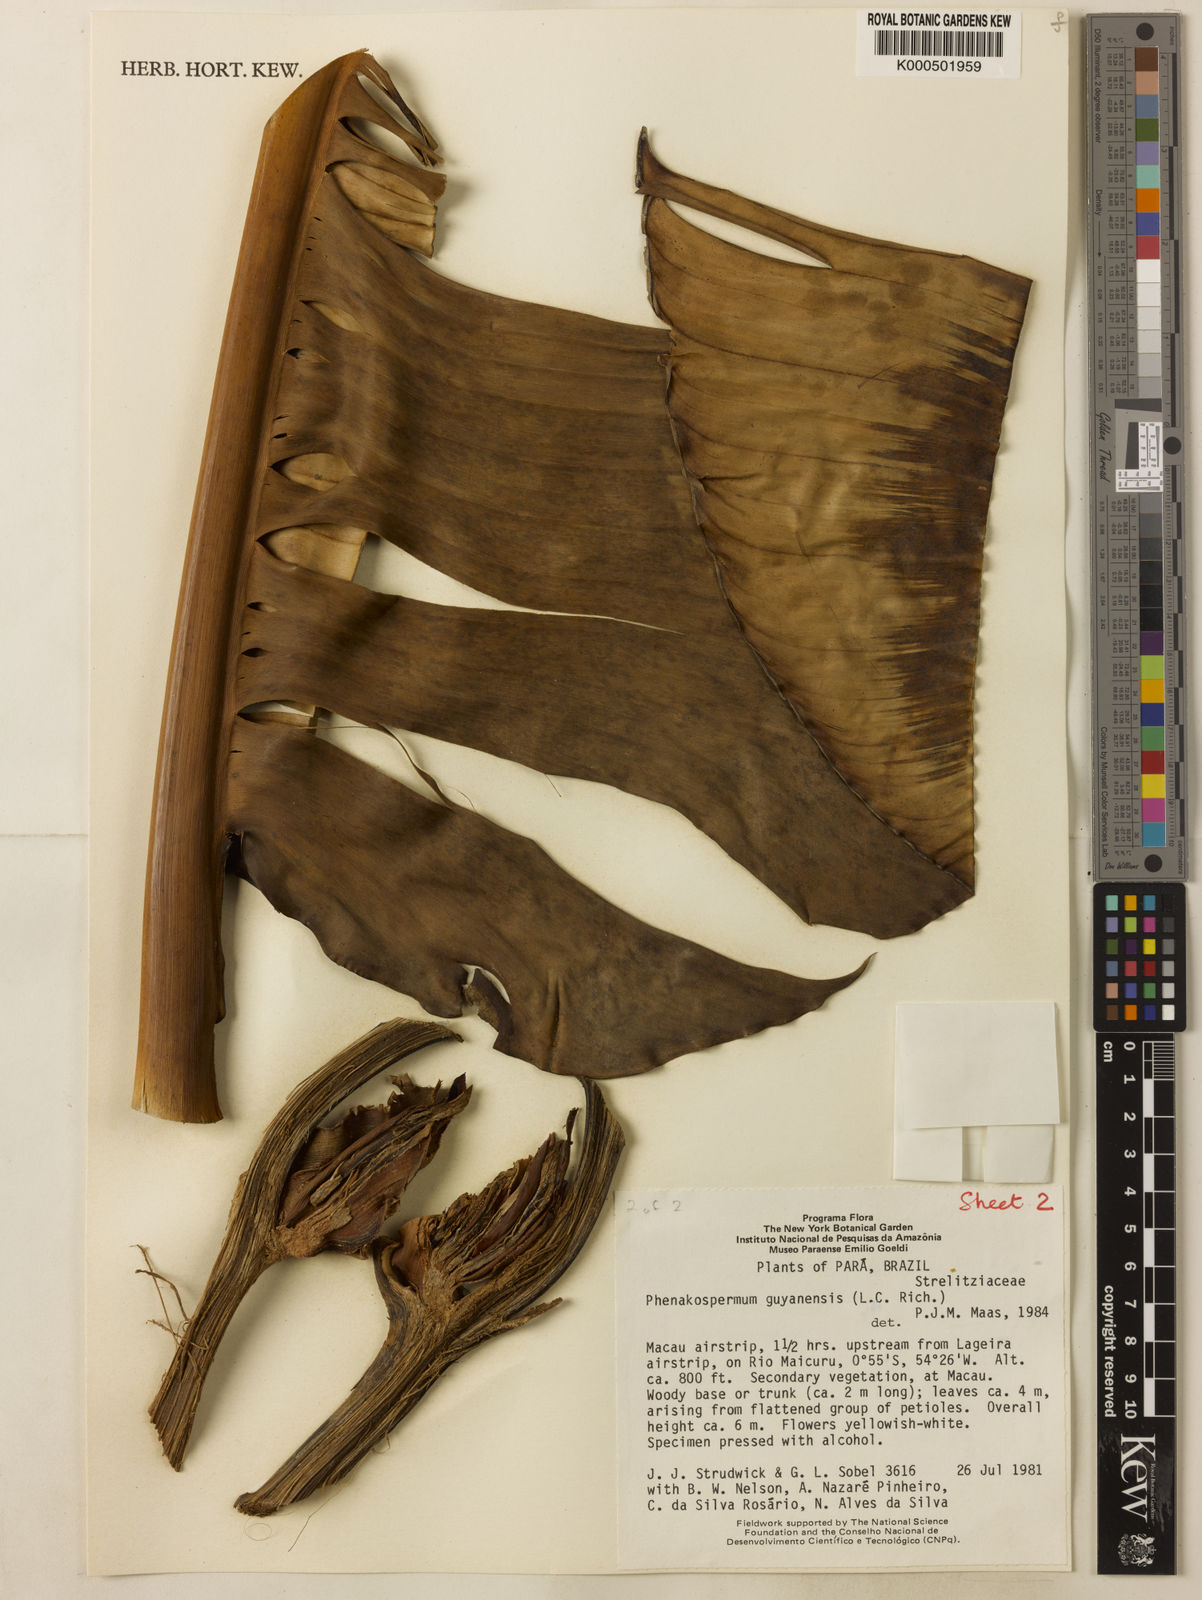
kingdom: Plantae
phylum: Tracheophyta
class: Liliopsida
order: Zingiberales
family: Strelitziaceae
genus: Phenakospermum
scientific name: Phenakospermum guyannense
